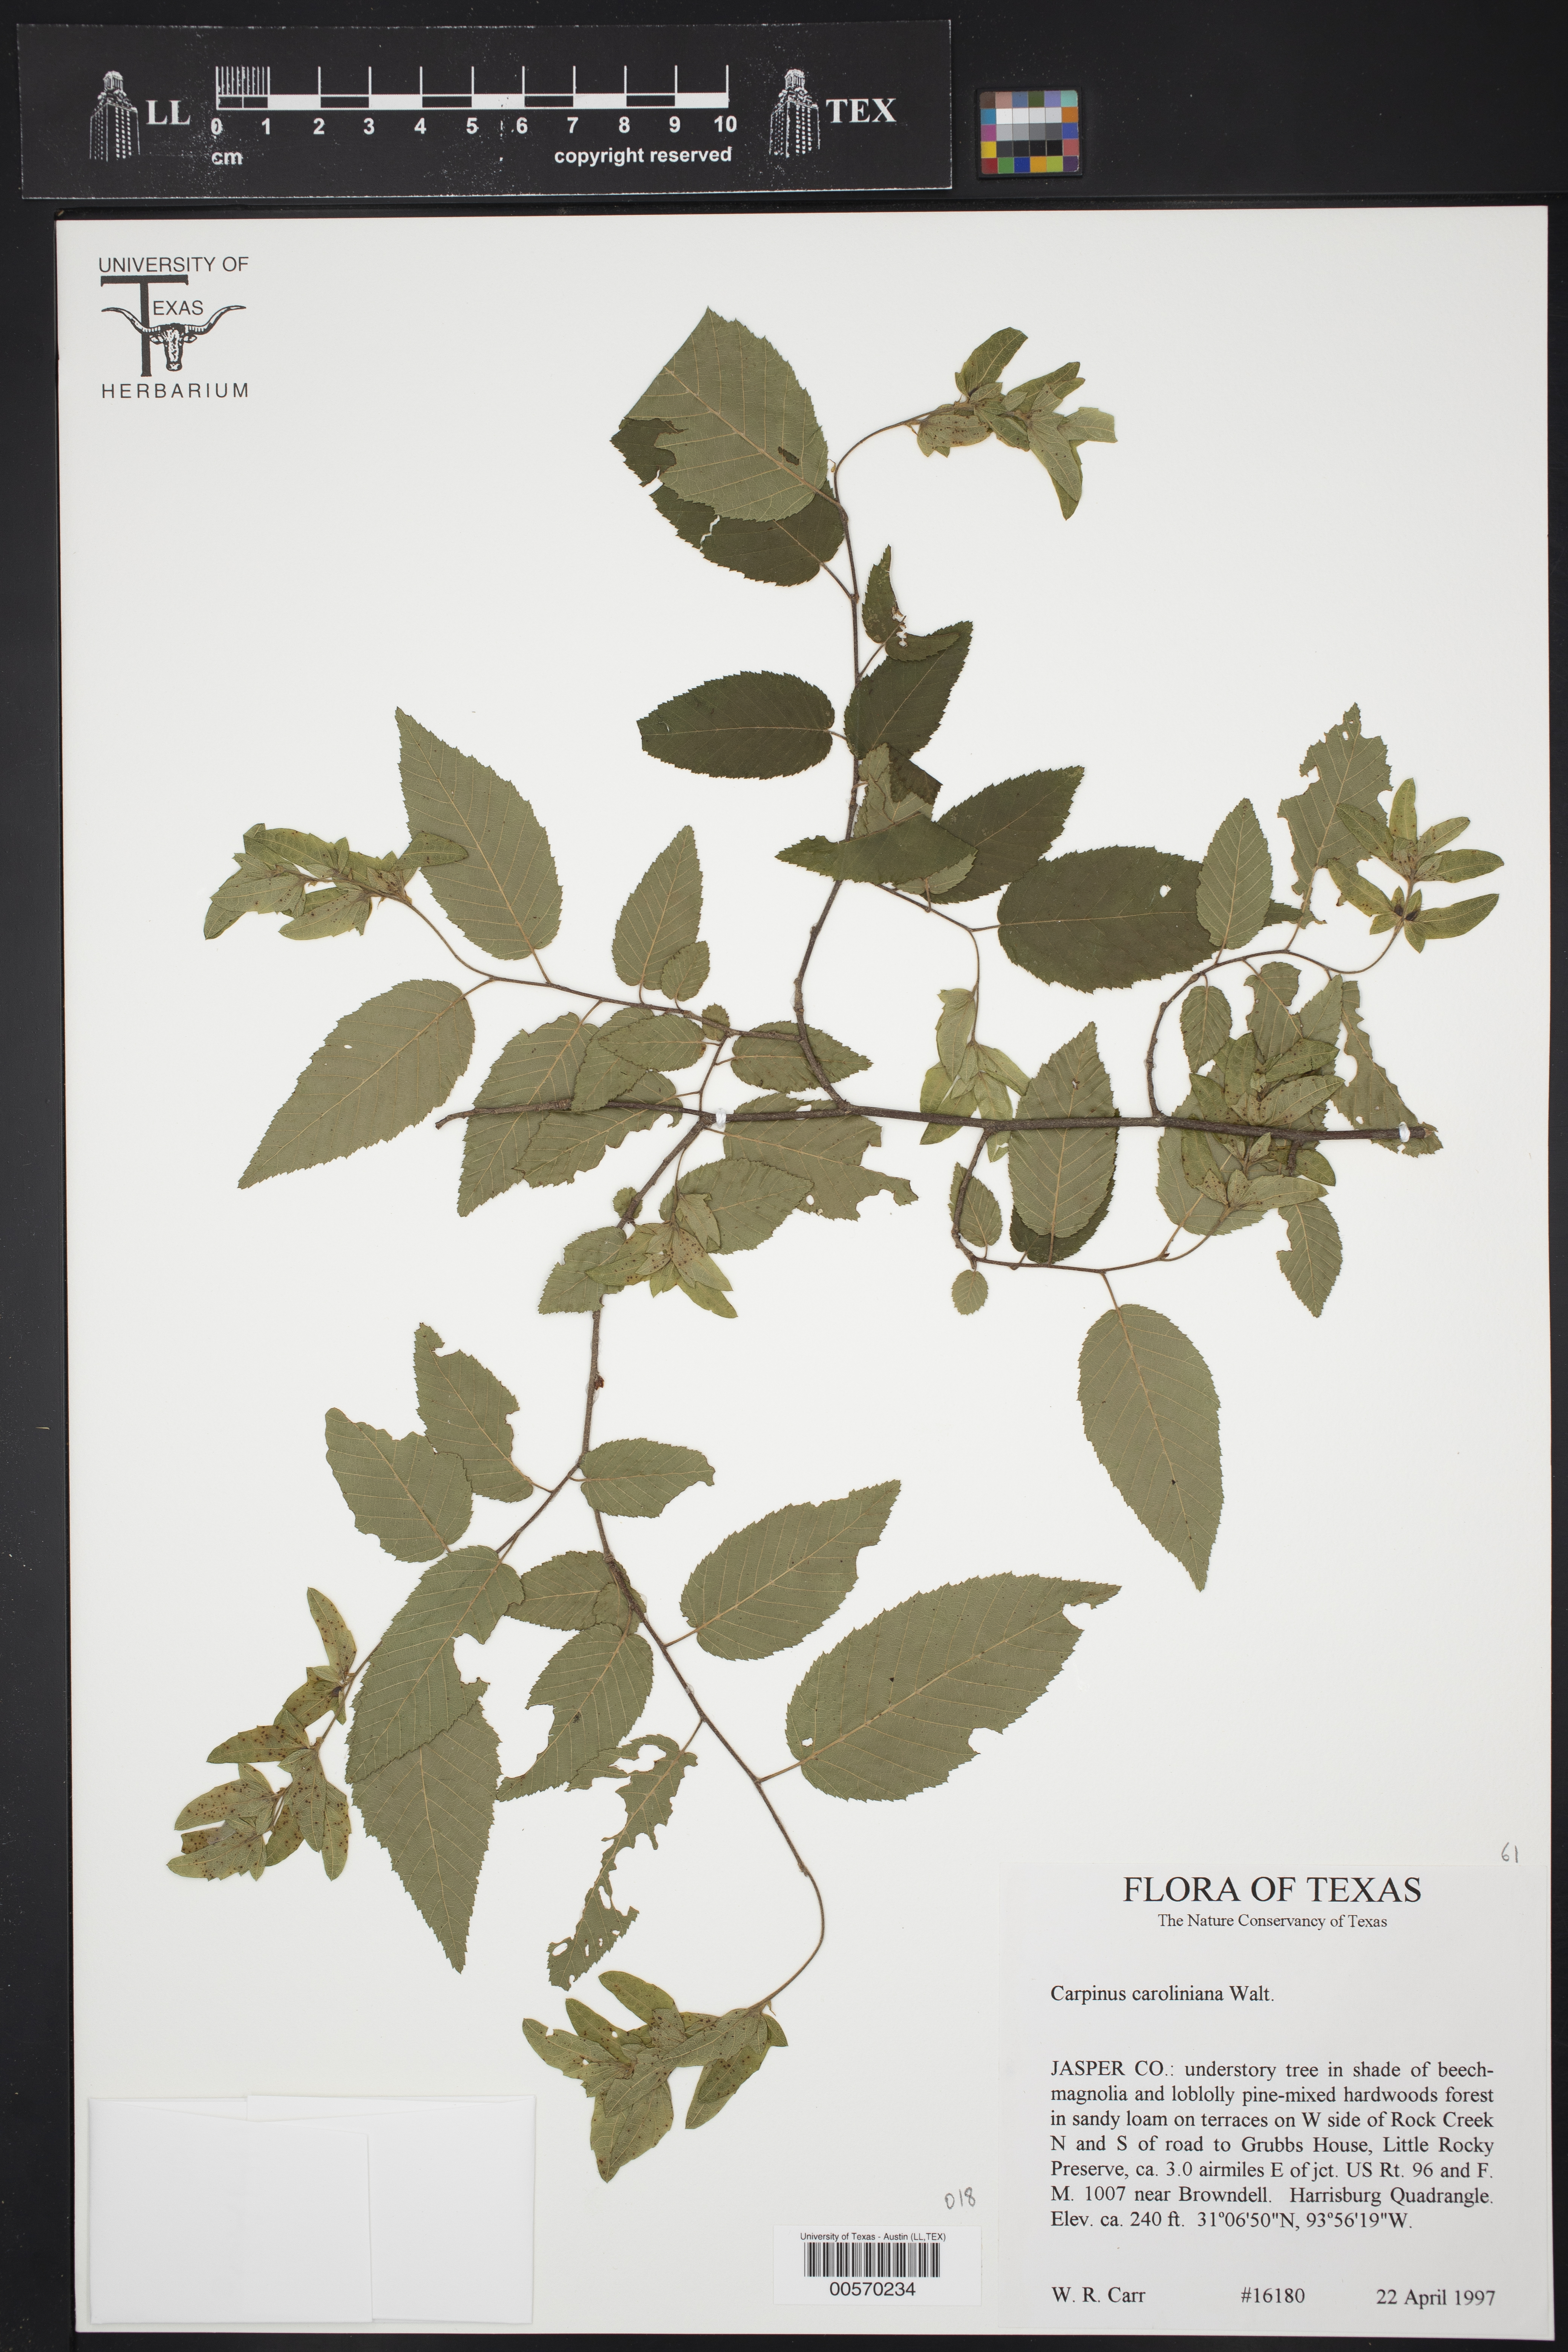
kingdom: Plantae
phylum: Tracheophyta
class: Magnoliopsida
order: Fagales
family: Betulaceae
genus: Carpinus
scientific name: Carpinus caroliniana
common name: American hornbeam
